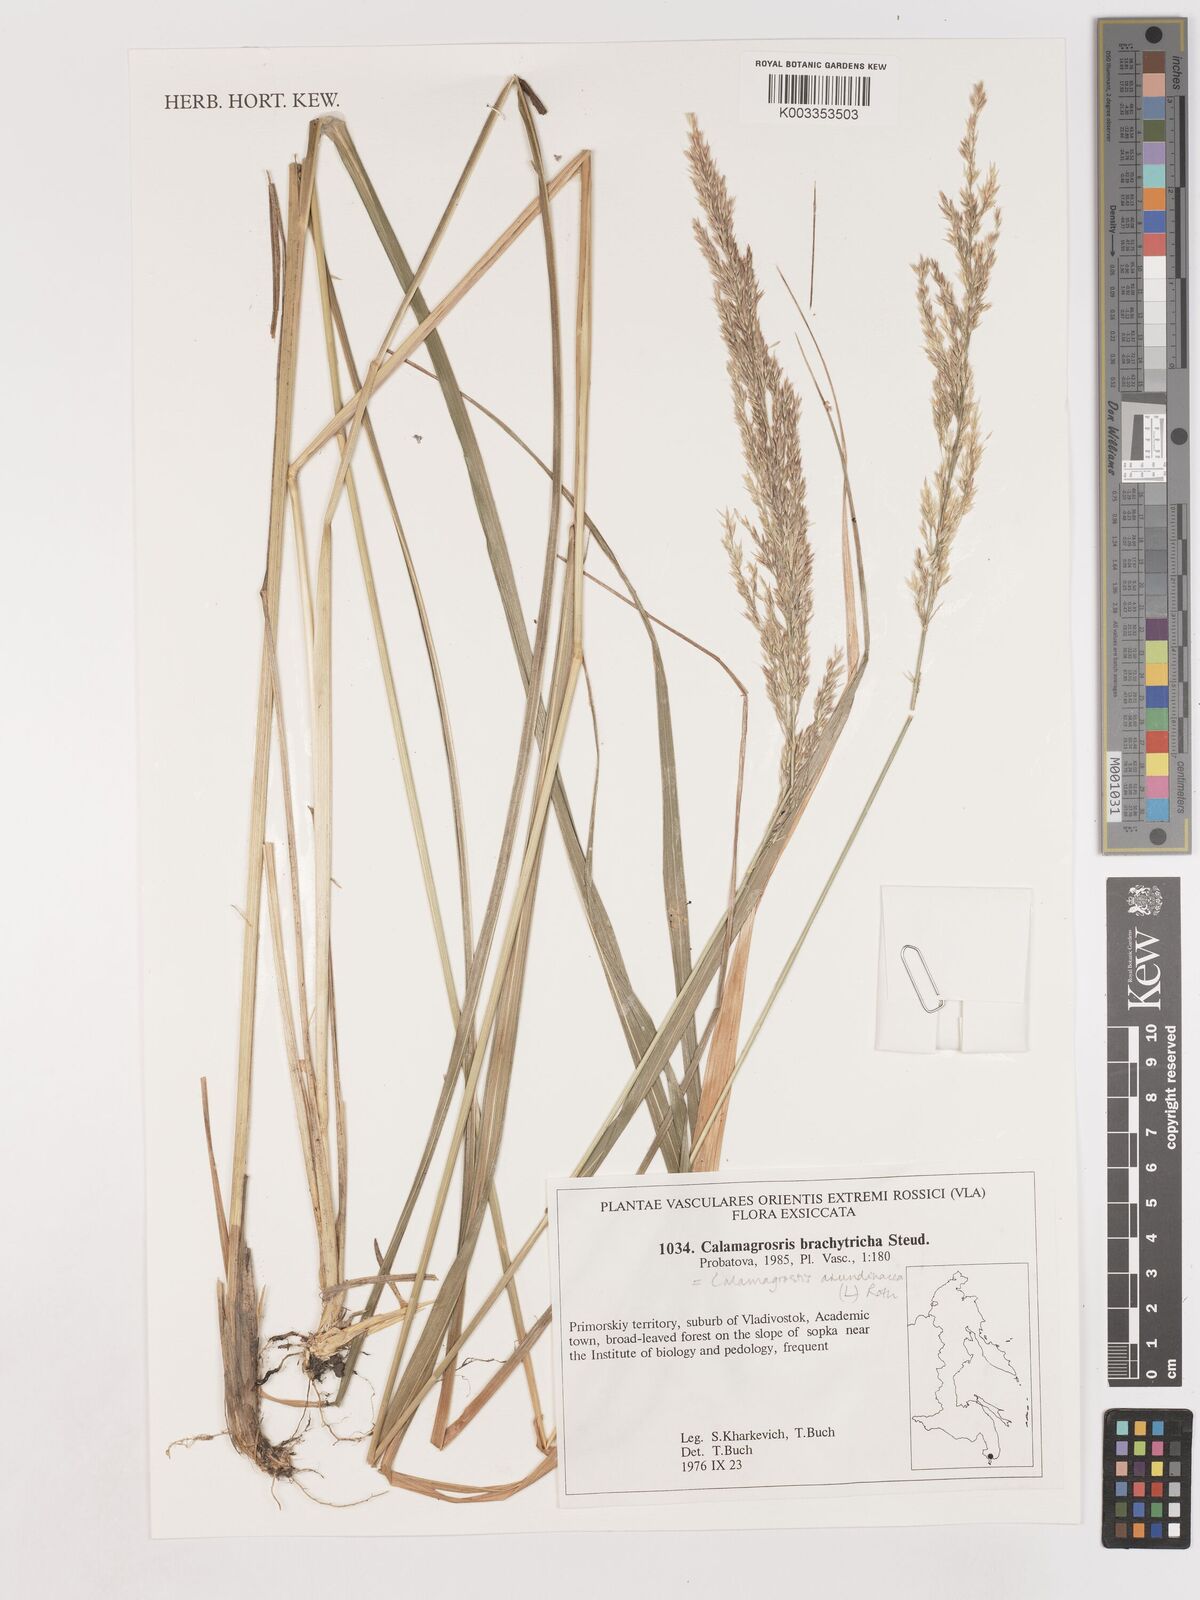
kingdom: Plantae
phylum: Tracheophyta
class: Liliopsida
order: Poales
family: Poaceae
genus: Calamagrostis
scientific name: Calamagrostis
